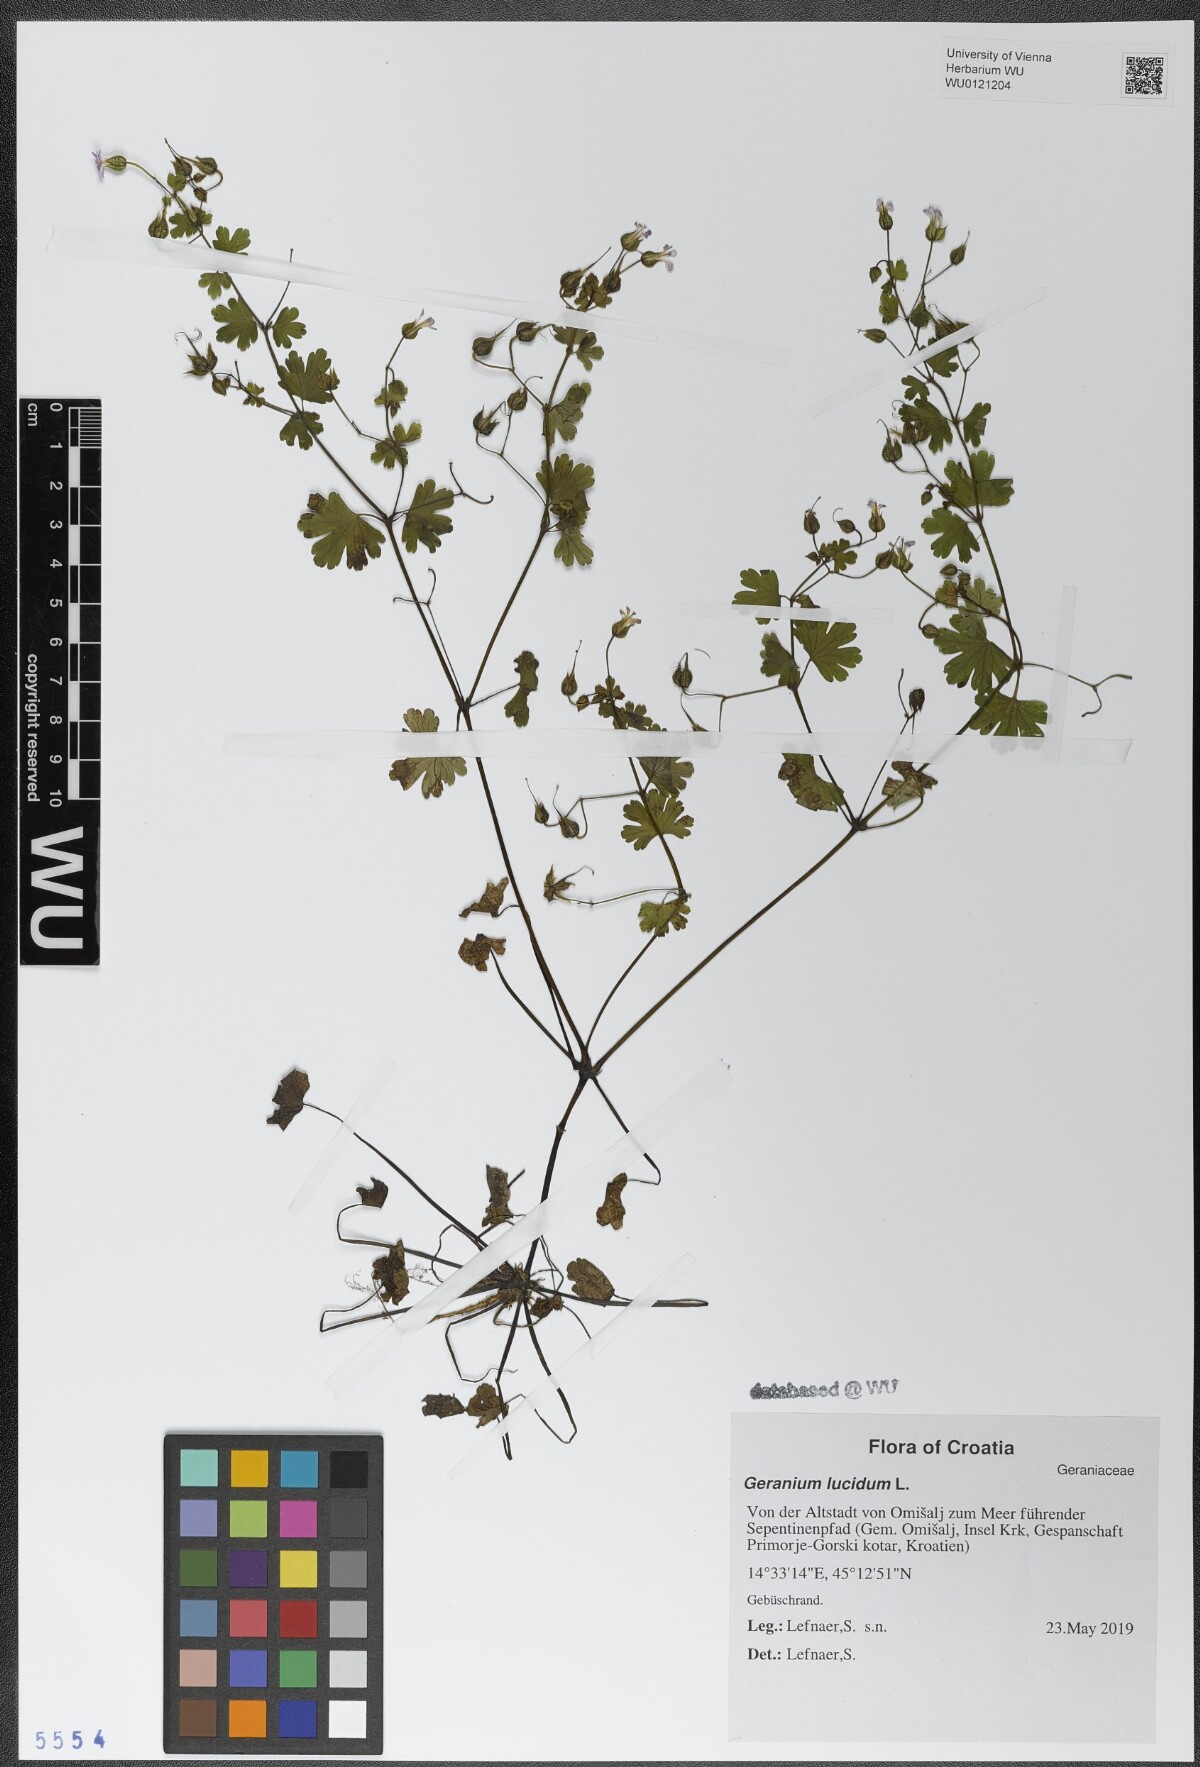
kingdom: Plantae
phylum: Tracheophyta
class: Magnoliopsida
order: Geraniales
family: Geraniaceae
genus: Geranium
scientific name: Geranium lucidum
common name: Shining crane's-bill
